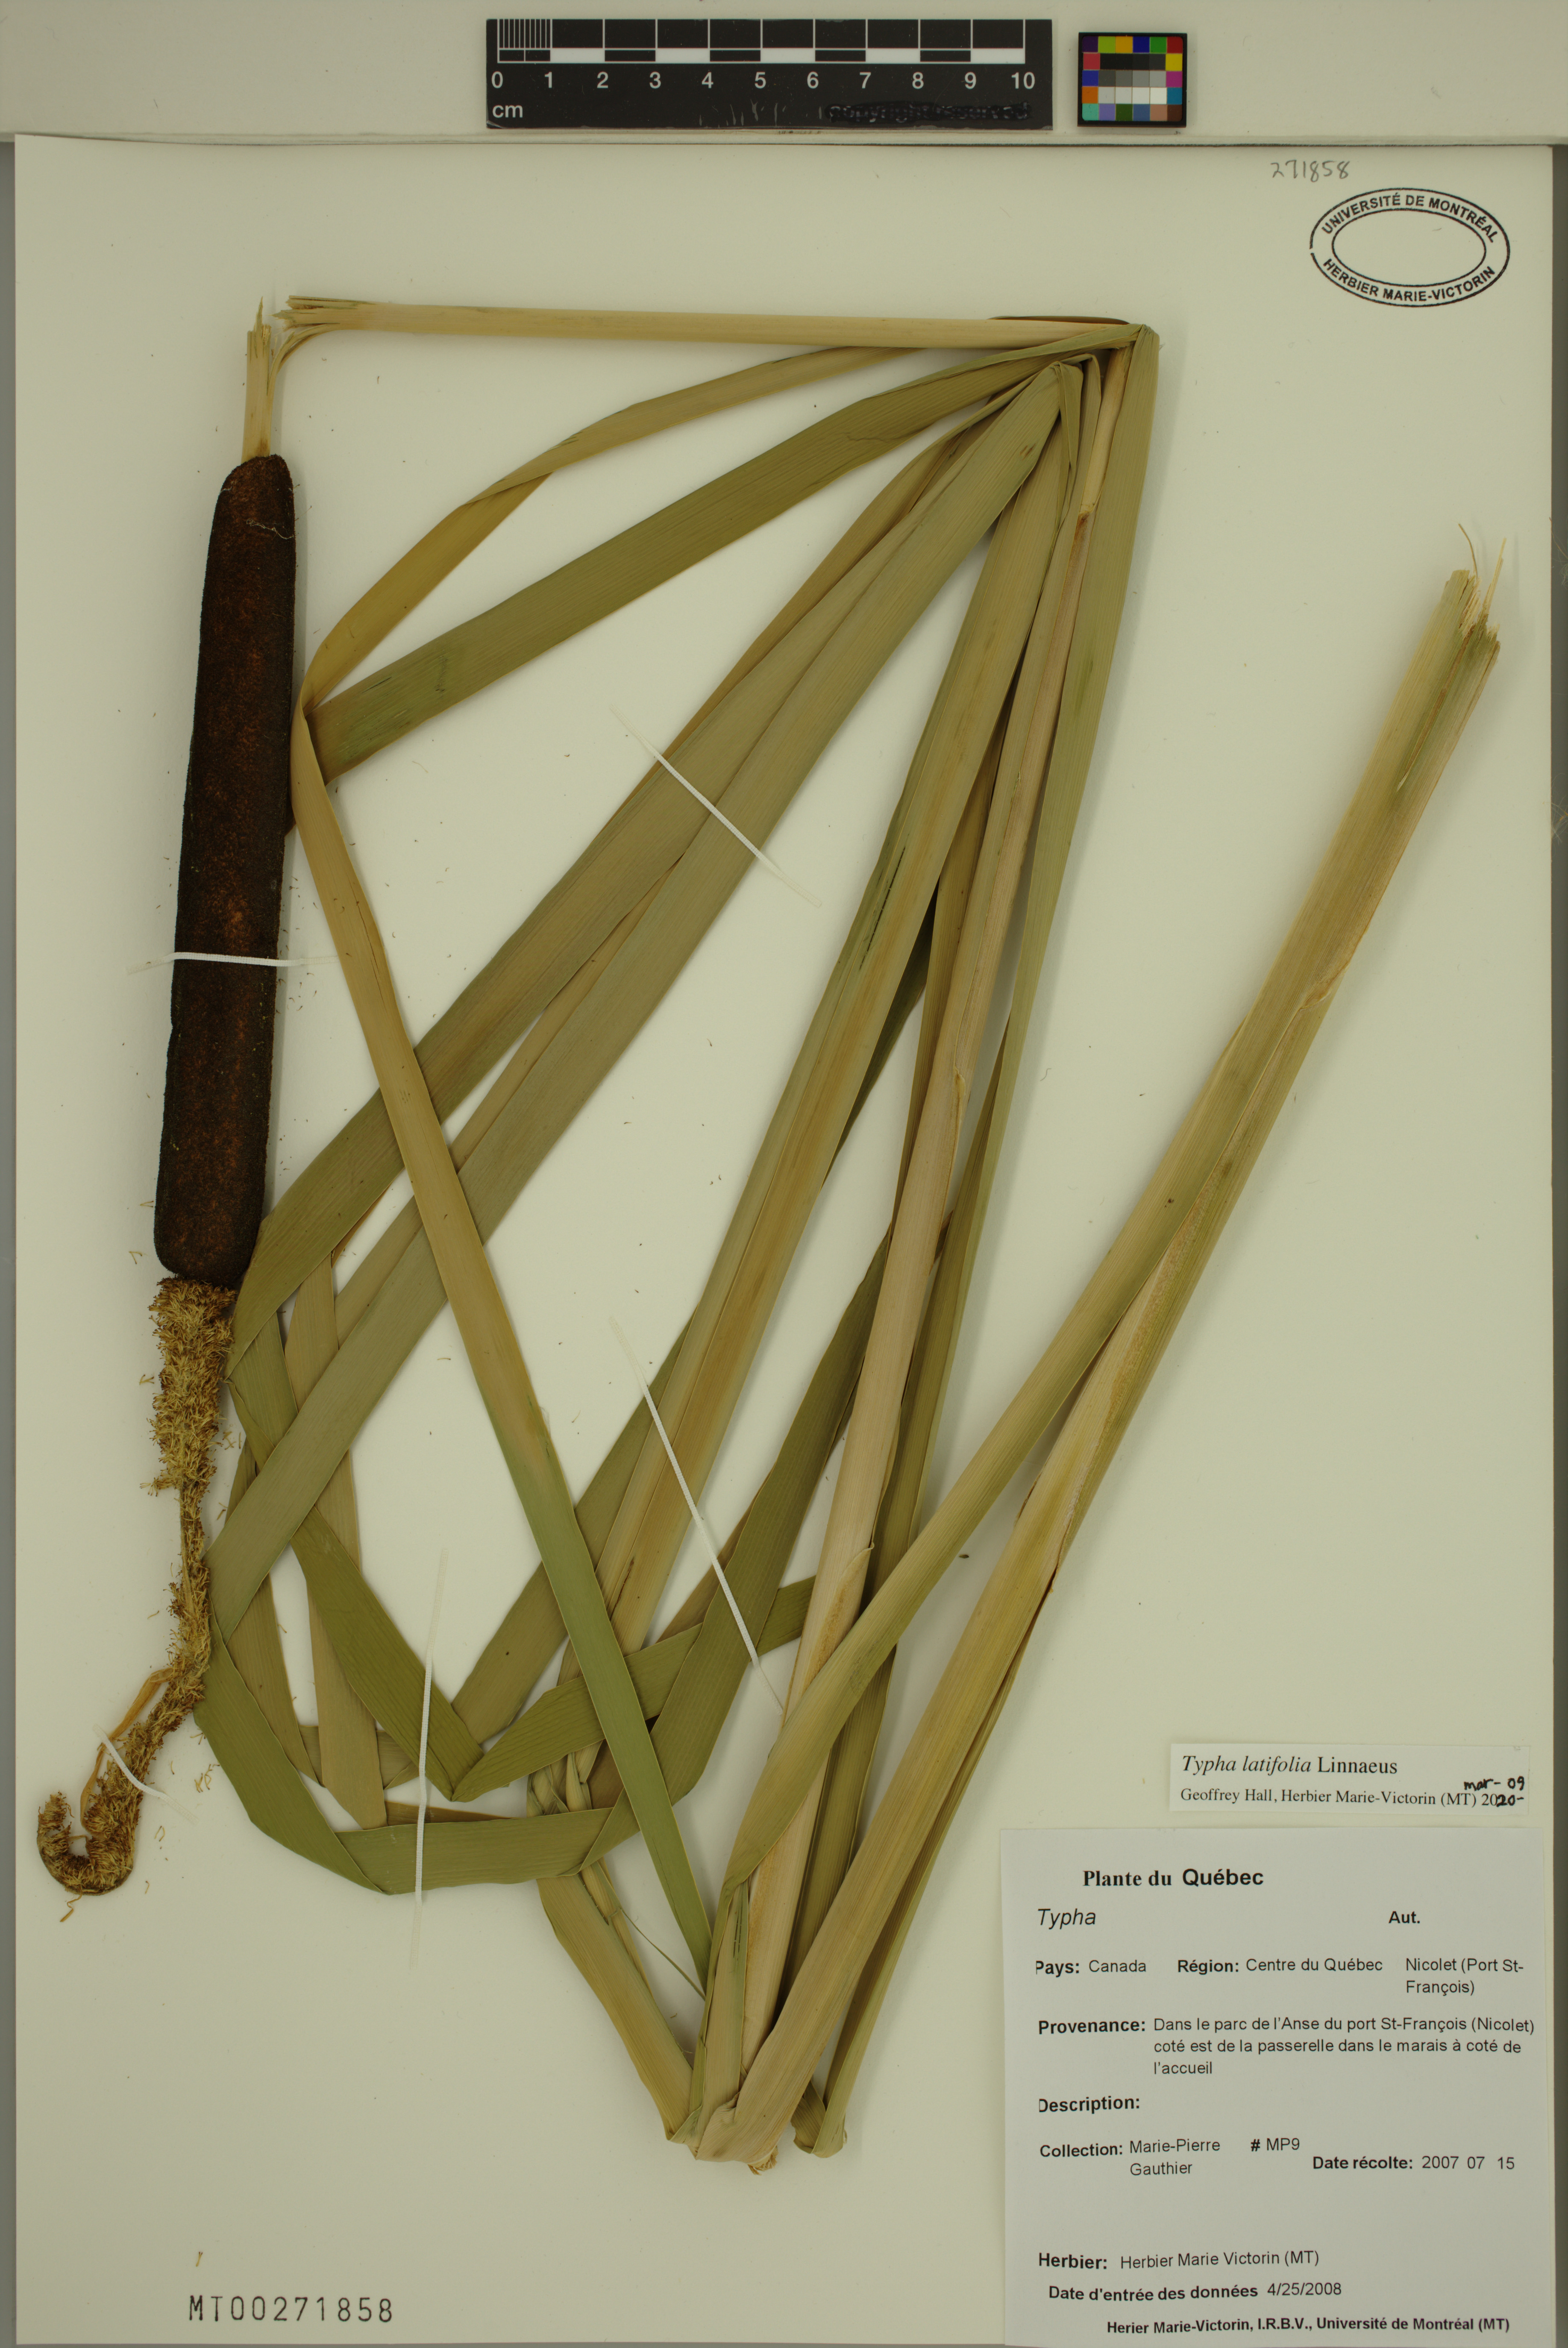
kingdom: Plantae
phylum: Tracheophyta
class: Liliopsida
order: Poales
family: Typhaceae
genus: Typha
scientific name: Typha latifolia
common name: Broadleaf cattail
